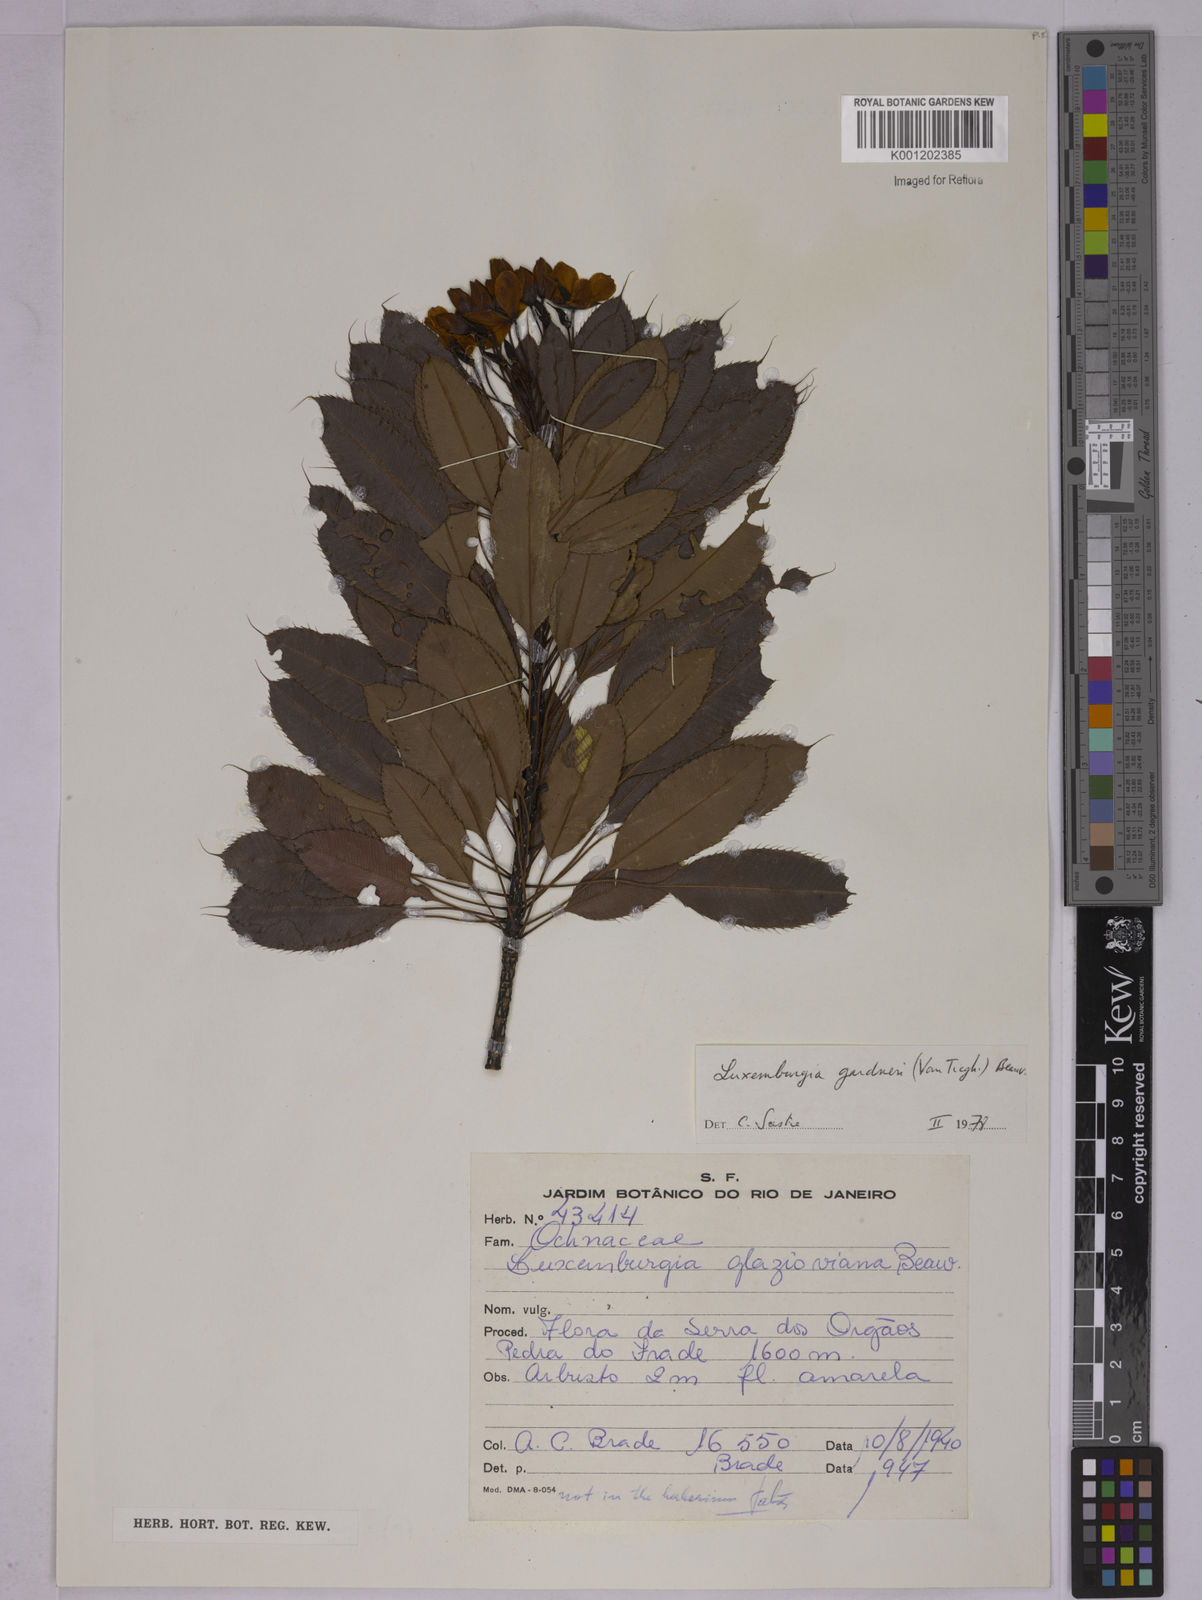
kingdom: Plantae
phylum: Tracheophyta
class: Magnoliopsida
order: Malpighiales
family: Ochnaceae
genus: Luxemburgia
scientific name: Luxemburgia ciliosa
